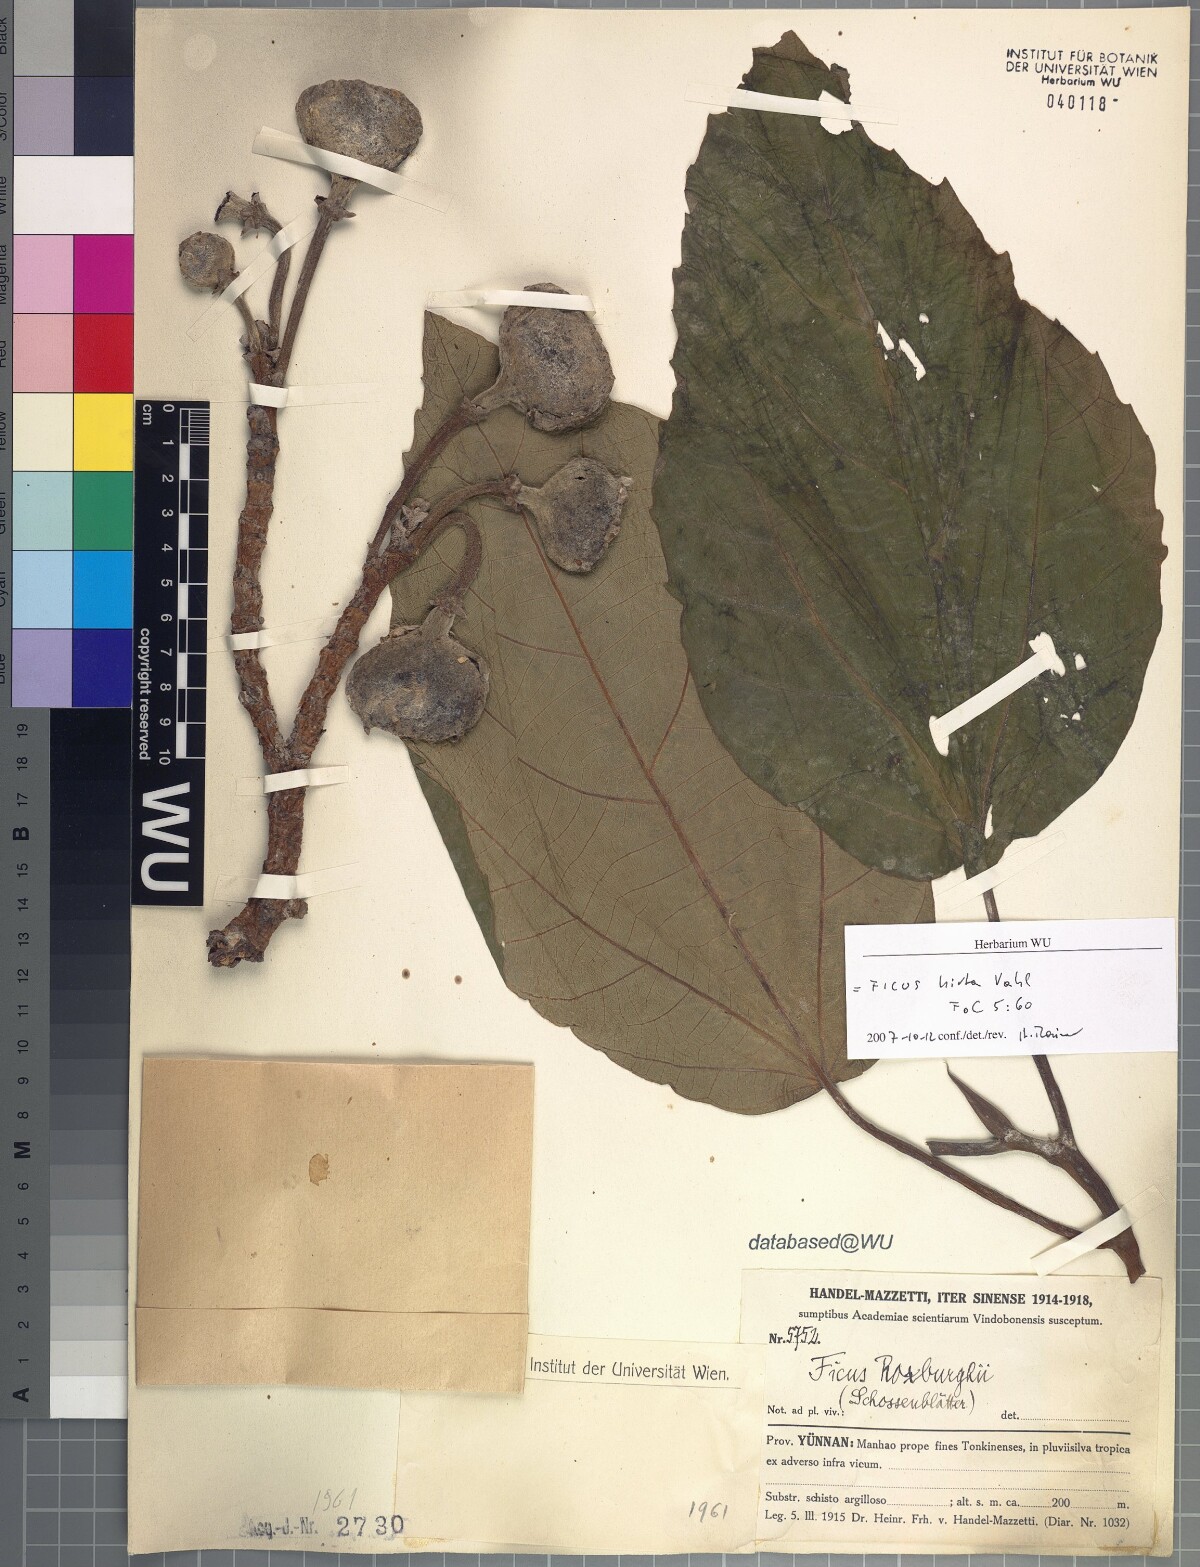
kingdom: Plantae
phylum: Tracheophyta
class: Magnoliopsida
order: Rosales
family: Moraceae
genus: Ficus
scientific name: Ficus simplicissima
